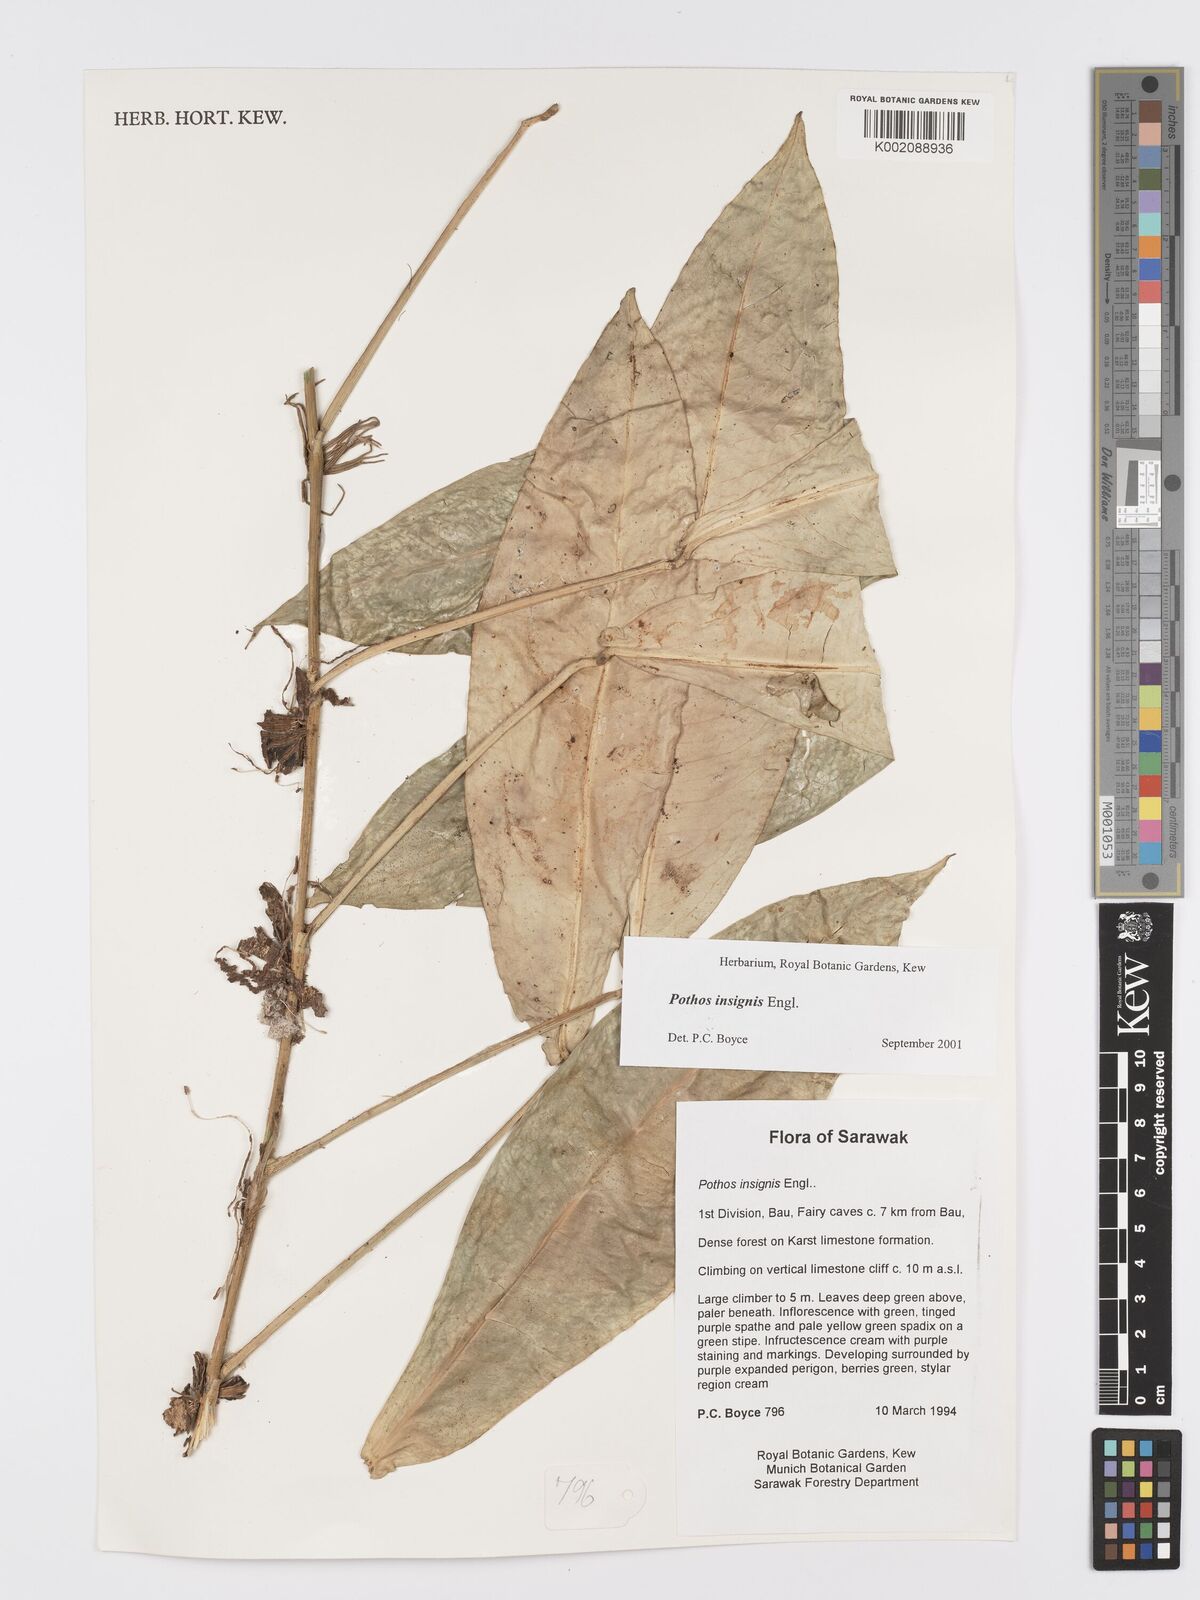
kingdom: Plantae
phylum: Tracheophyta
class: Liliopsida
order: Alismatales
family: Araceae
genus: Pothos
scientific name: Pothos insignis
